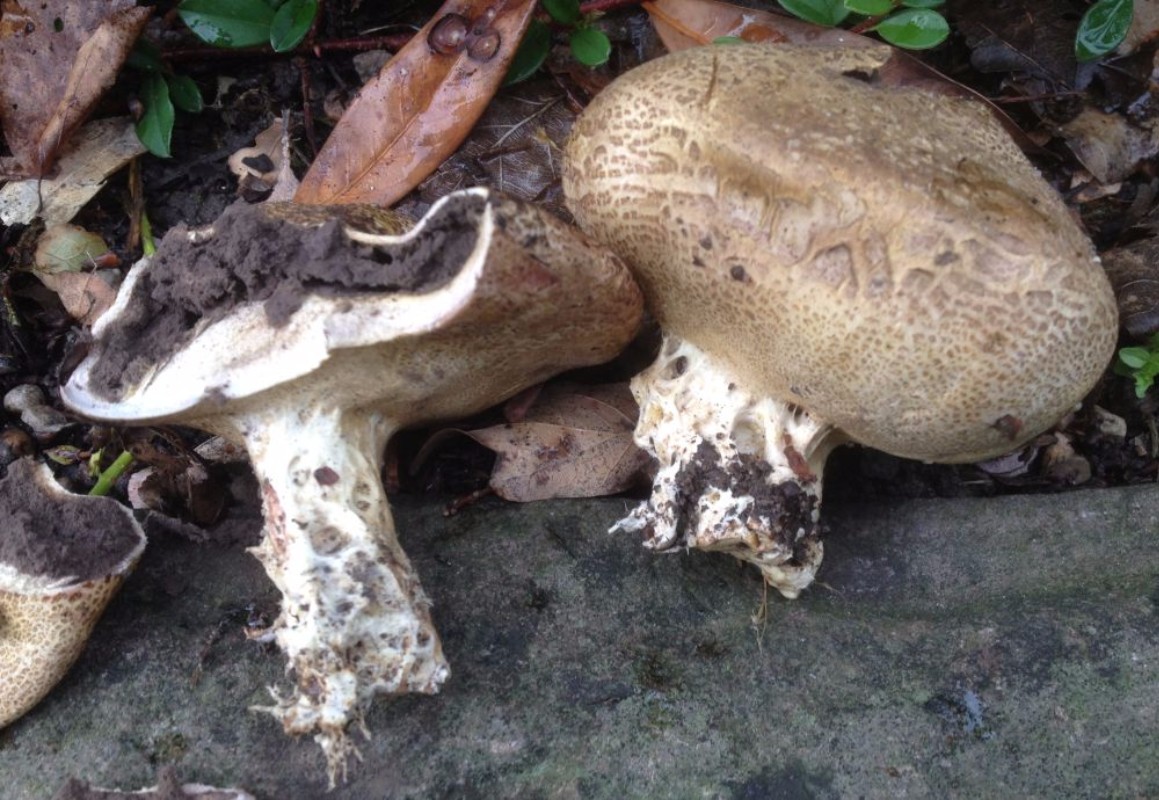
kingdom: Fungi
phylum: Basidiomycota
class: Agaricomycetes
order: Boletales
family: Sclerodermataceae
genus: Scleroderma
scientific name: Scleroderma verrucosum
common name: stilket bruskbold
